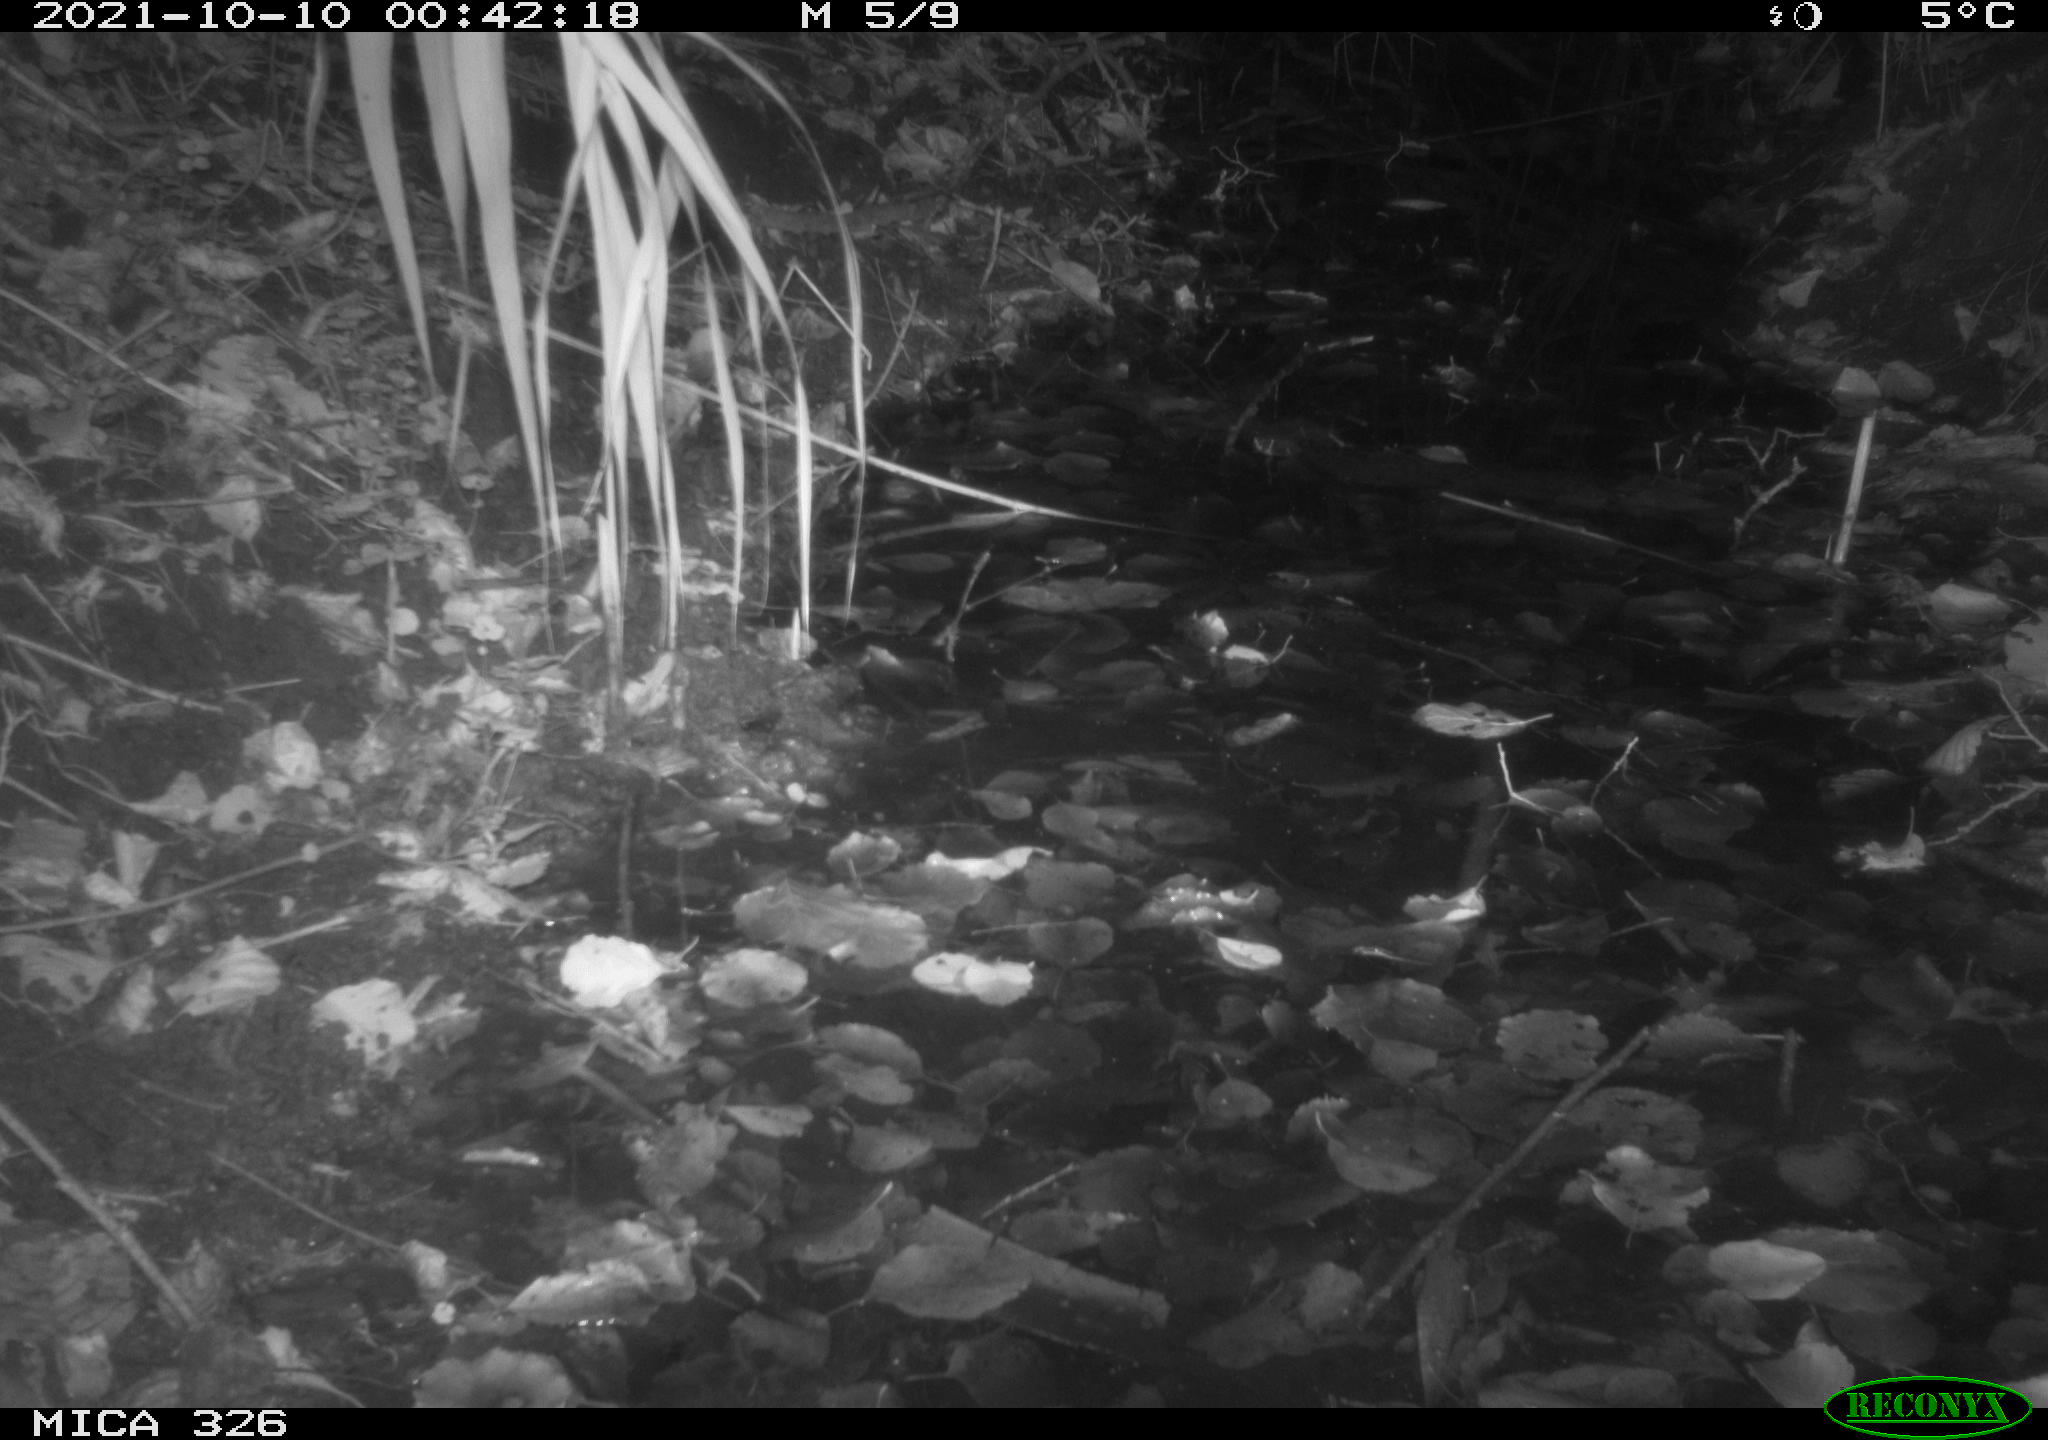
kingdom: Animalia
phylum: Chordata
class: Mammalia
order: Rodentia
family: Muridae
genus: Rattus
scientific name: Rattus norvegicus
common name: Brown rat
